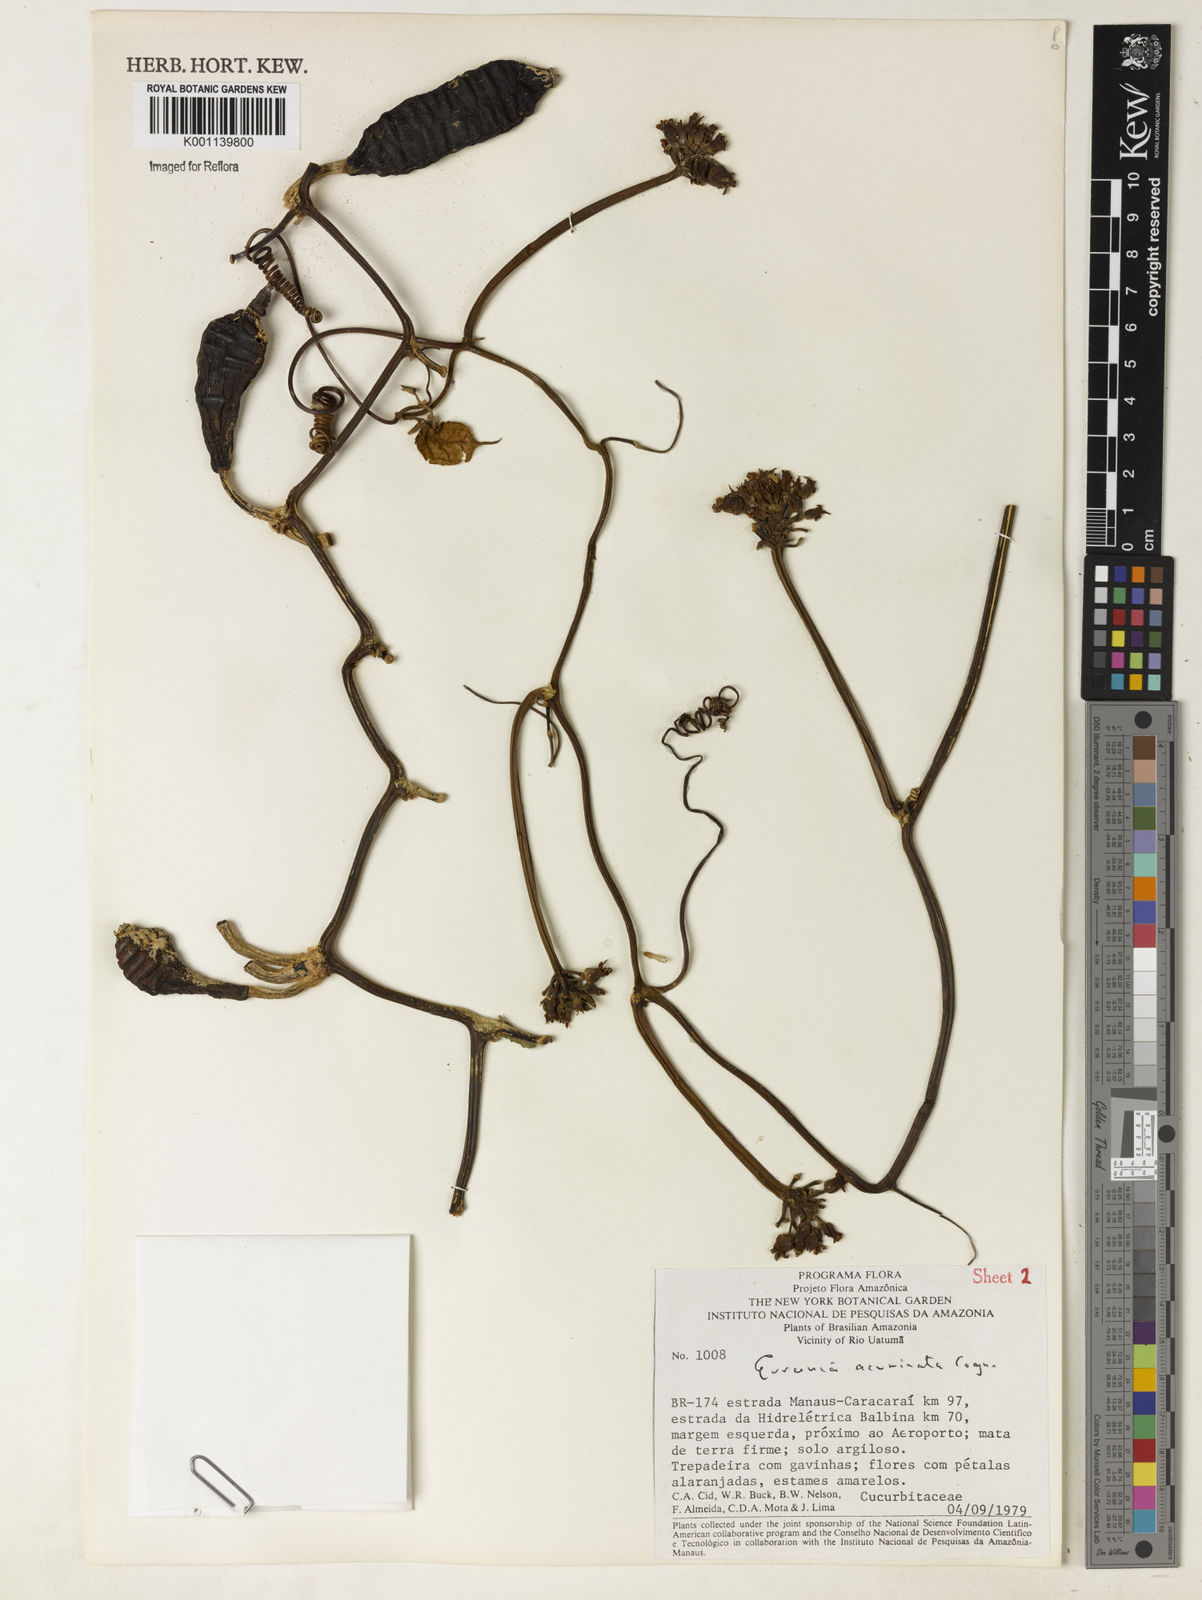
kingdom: Plantae
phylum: Tracheophyta
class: Magnoliopsida
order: Cucurbitales
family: Cucurbitaceae
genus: Gurania
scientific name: Gurania acuminata
